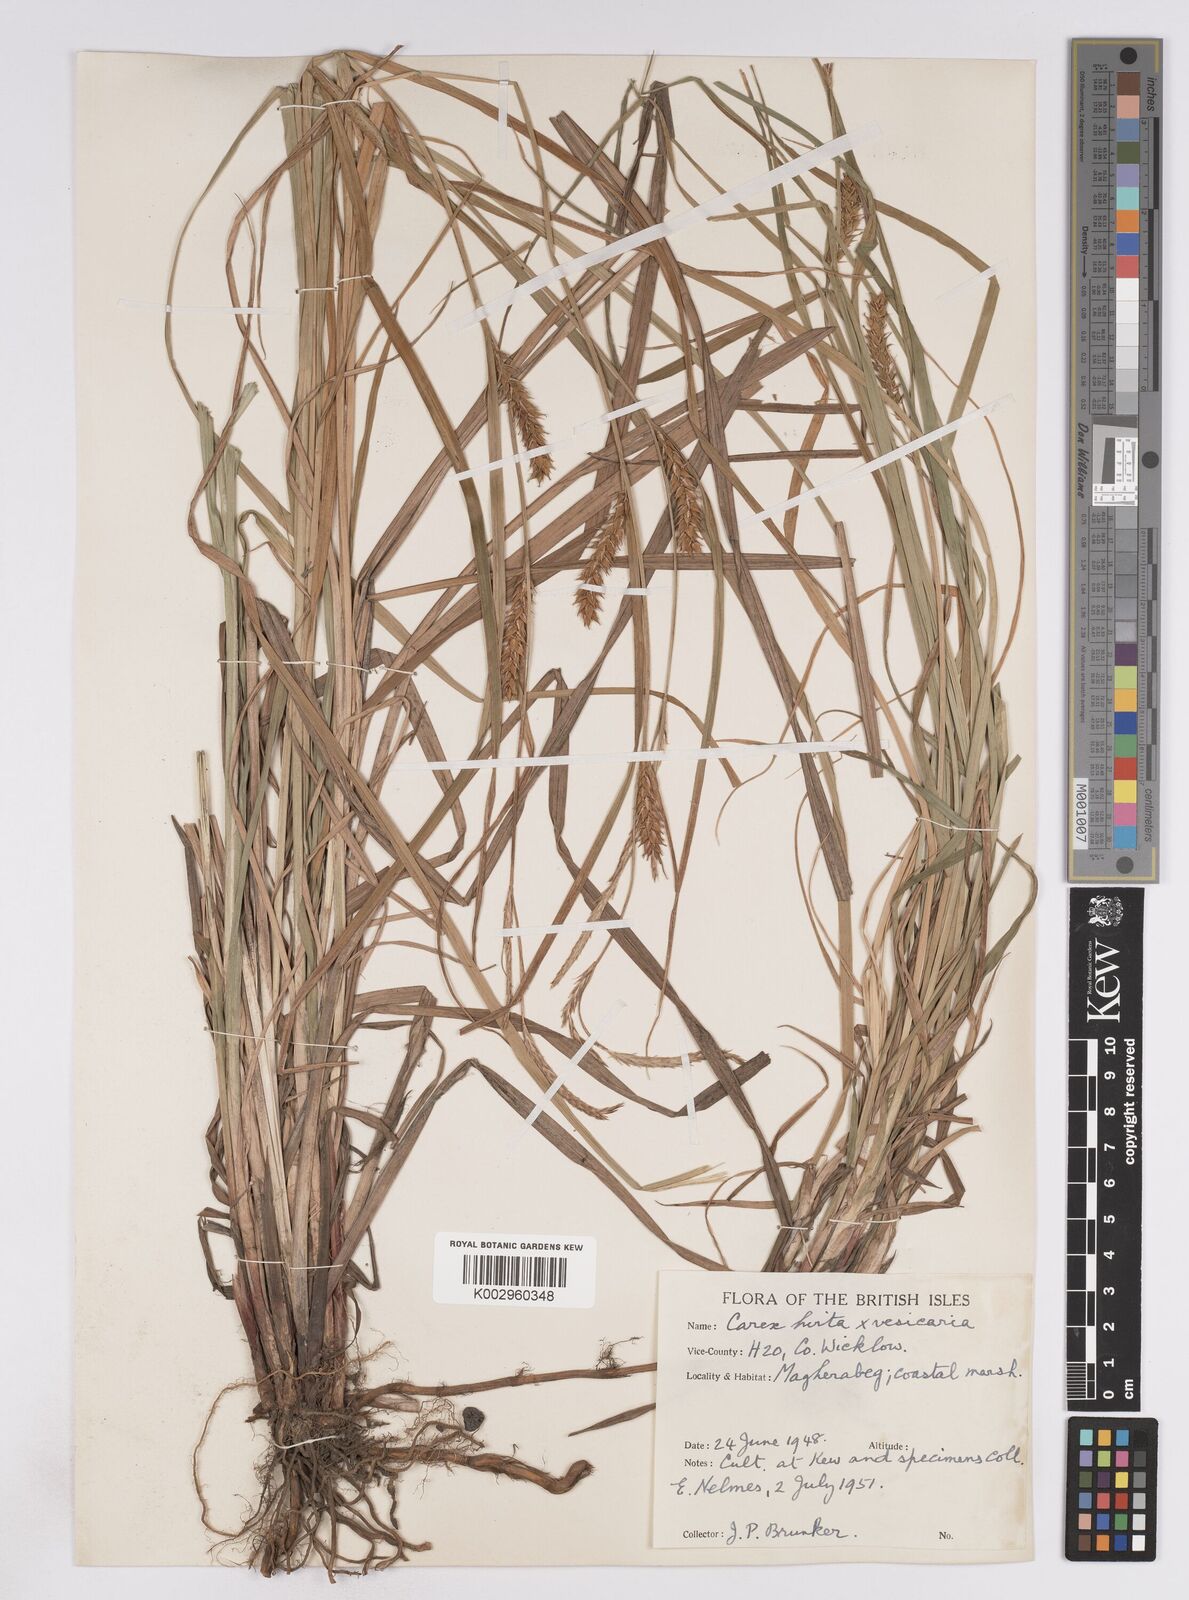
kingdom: Plantae
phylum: Tracheophyta
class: Liliopsida
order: Poales
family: Cyperaceae
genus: Carex
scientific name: Carex vesicaria
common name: Bladder-sedge
